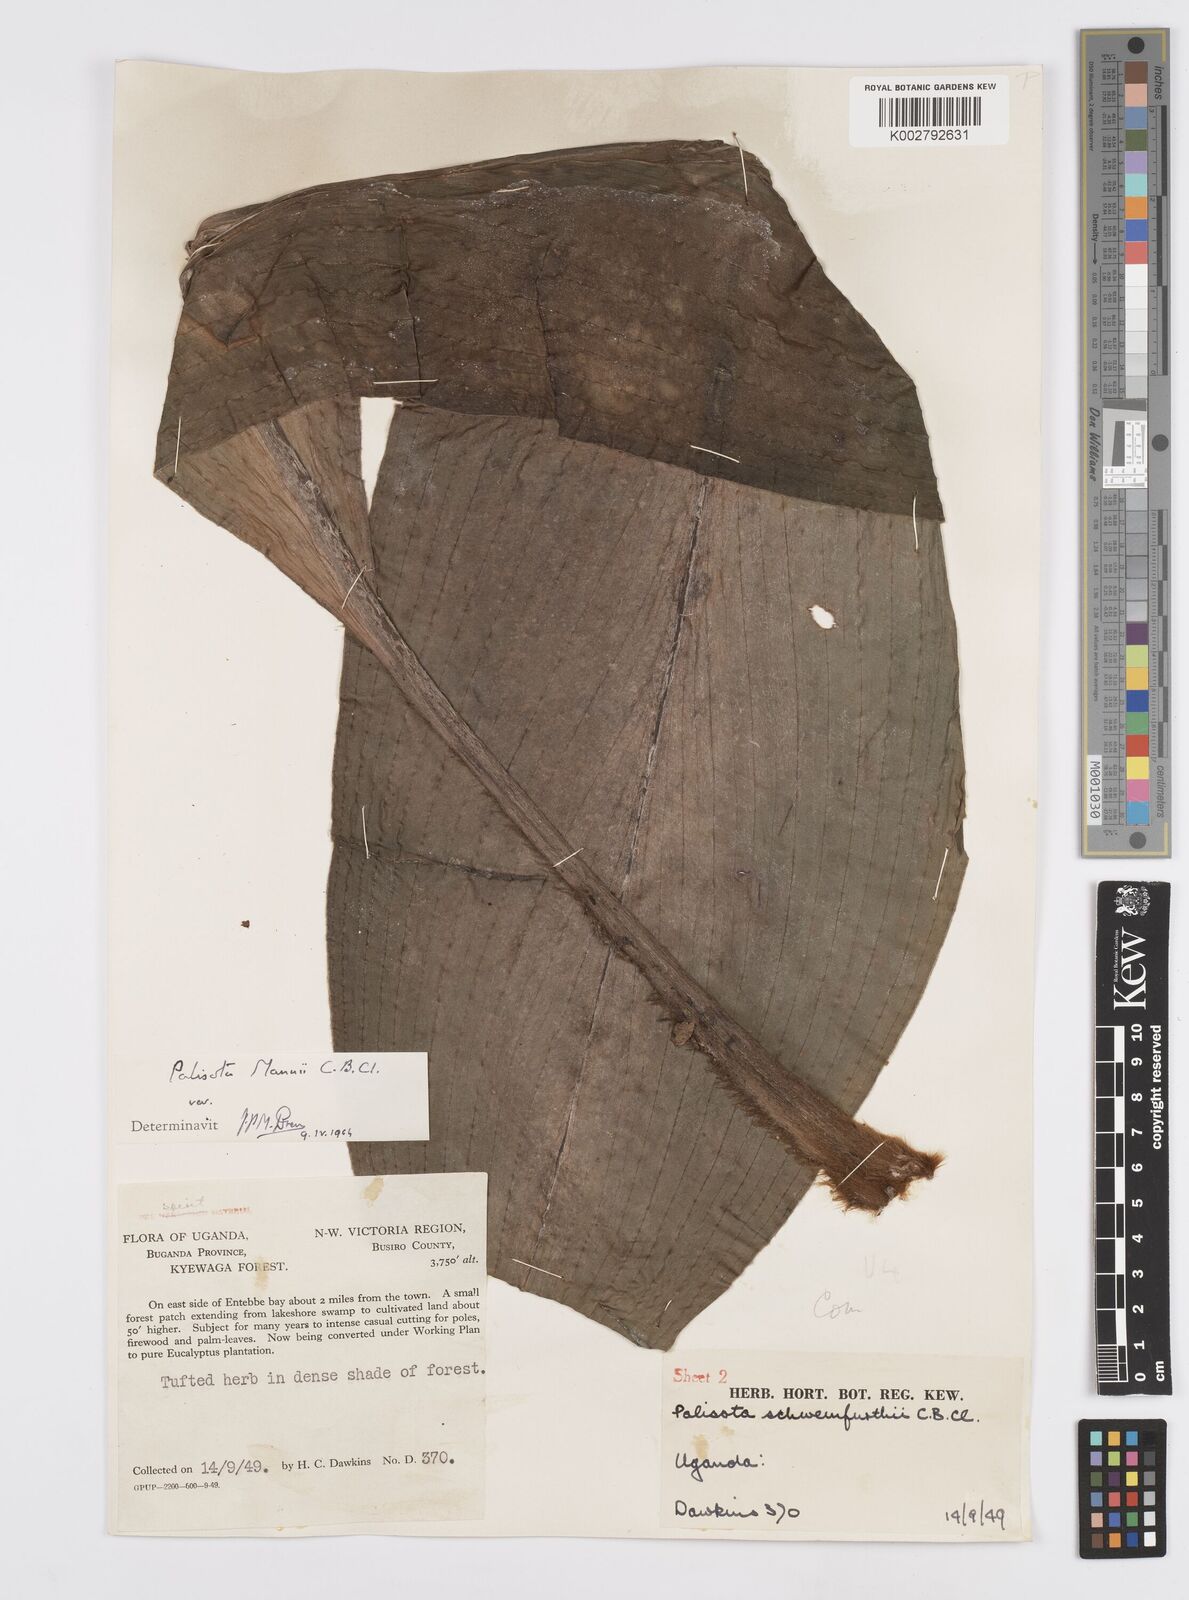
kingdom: Plantae
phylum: Tracheophyta
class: Liliopsida
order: Commelinales
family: Commelinaceae
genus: Palisota
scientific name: Palisota mannii
